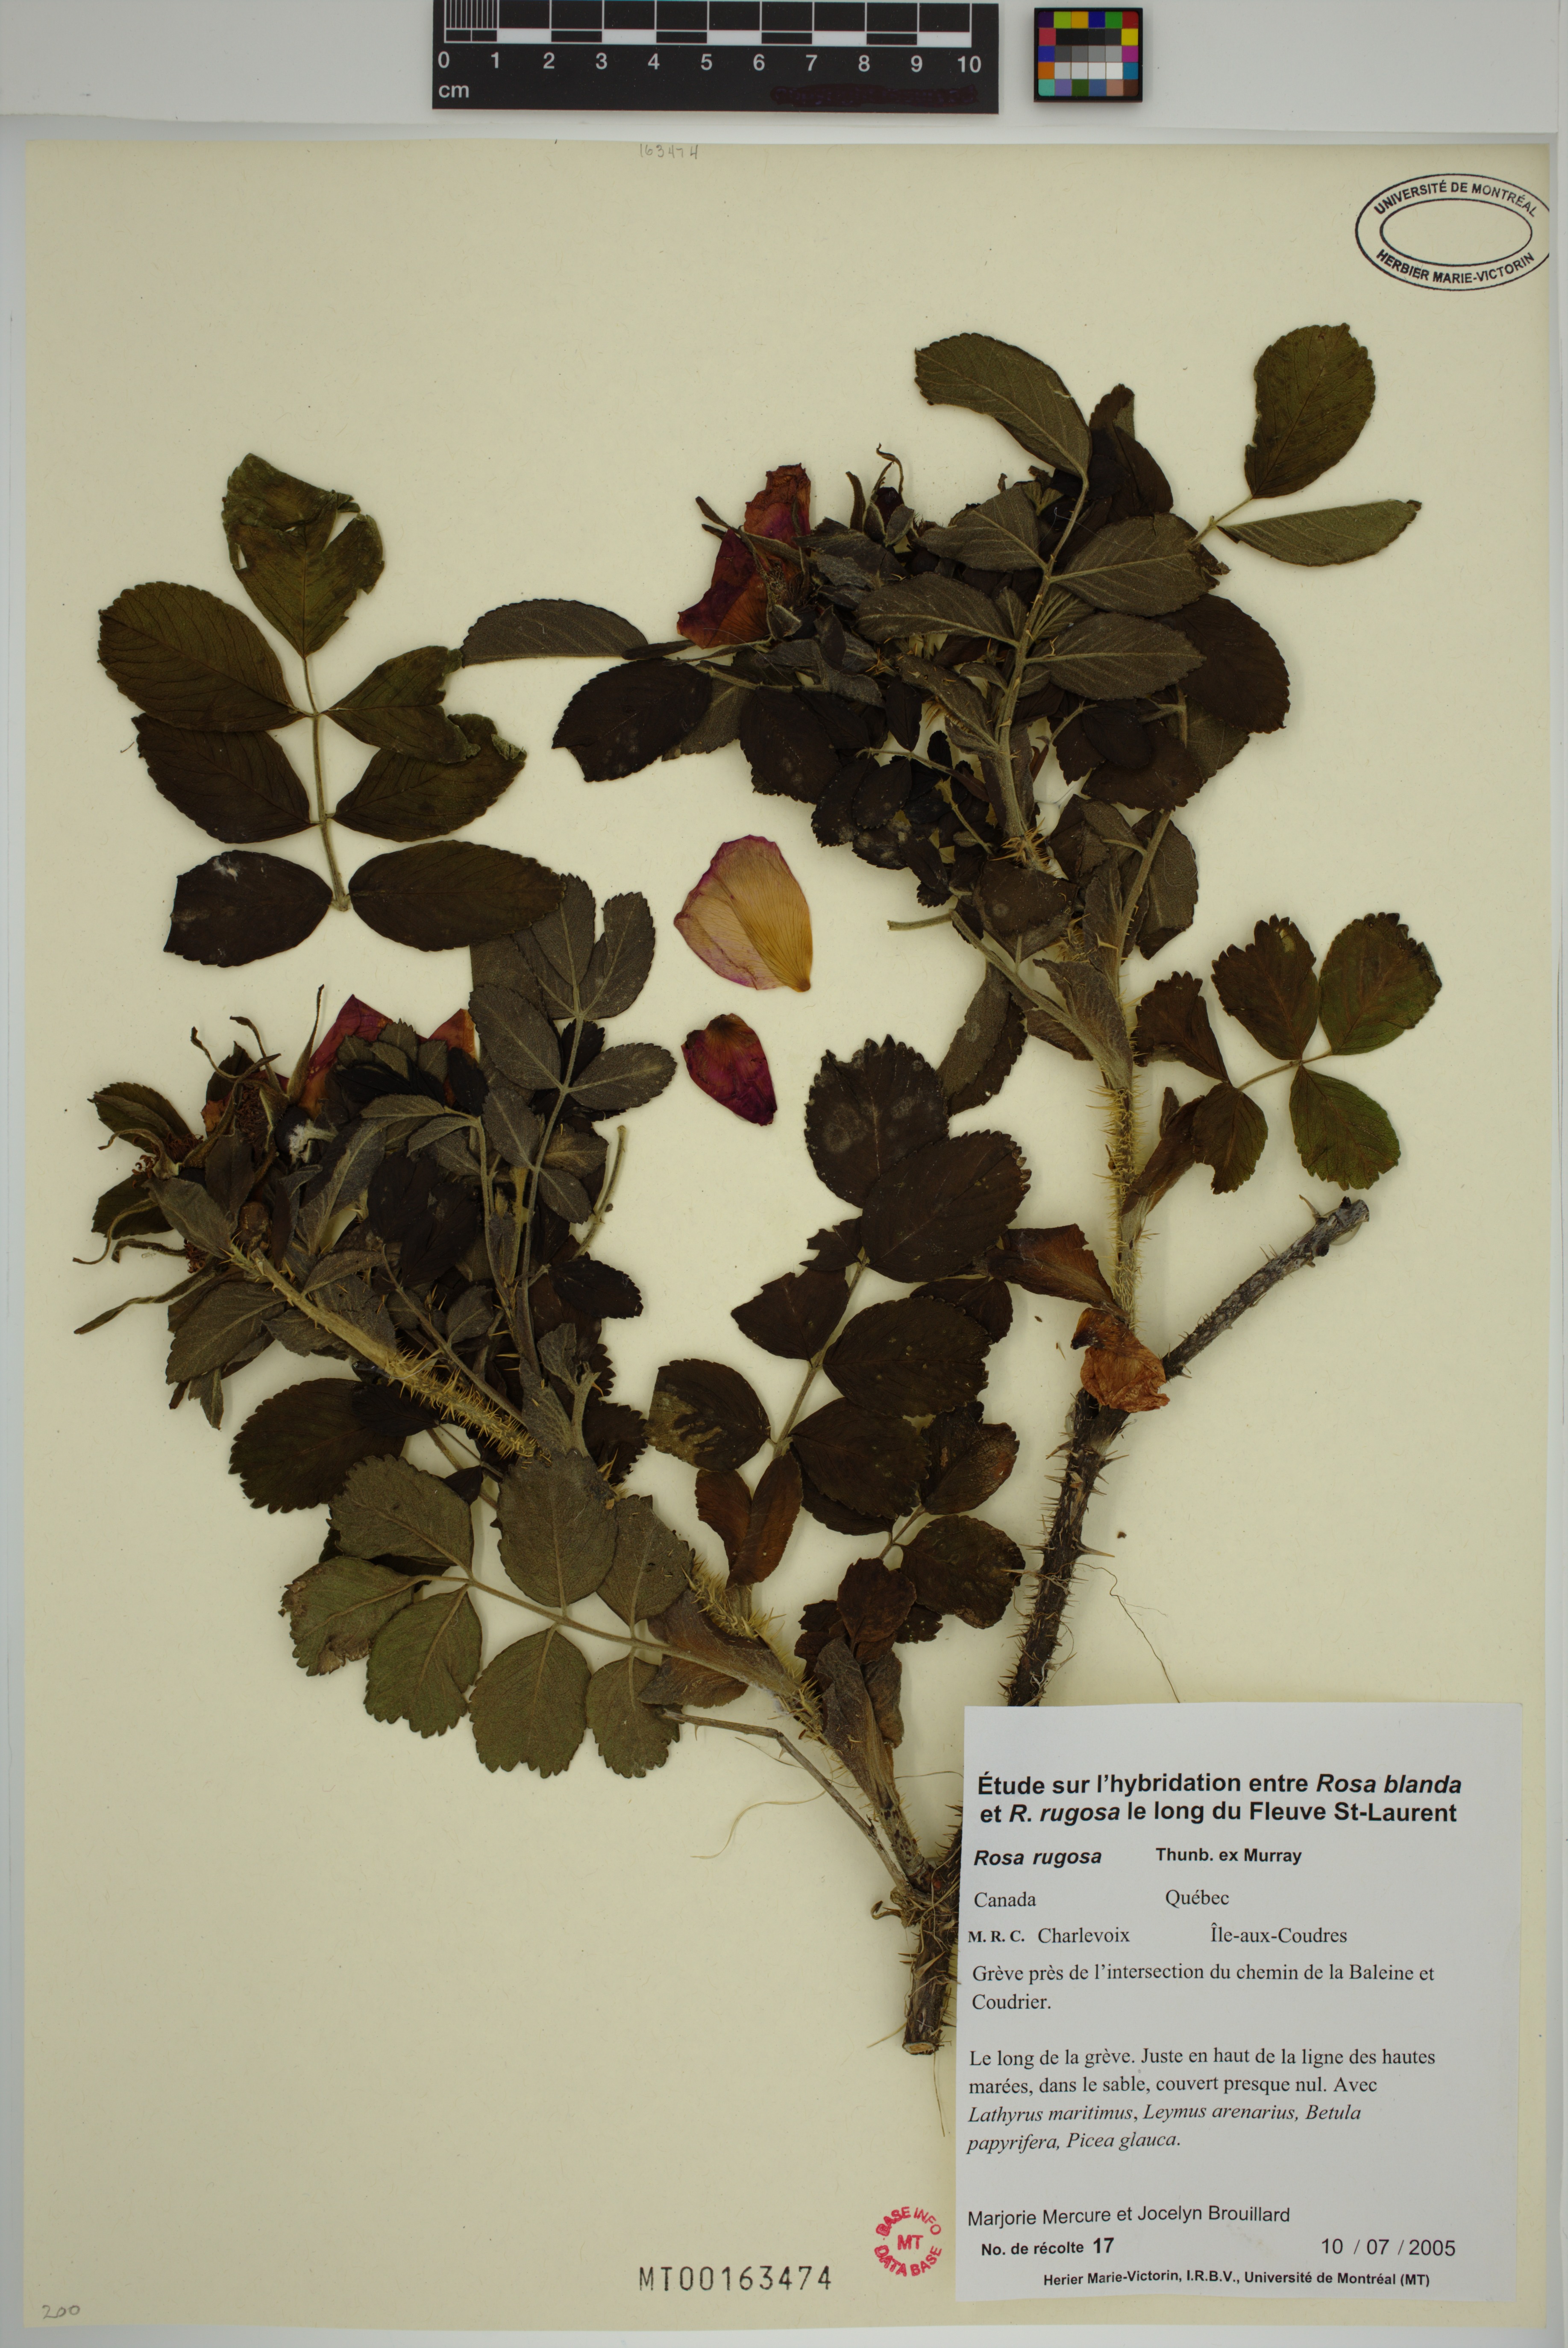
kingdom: Plantae
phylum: Tracheophyta
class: Magnoliopsida
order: Rosales
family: Rosaceae
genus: Rosa
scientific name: Rosa rugosa
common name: Japanese rose
